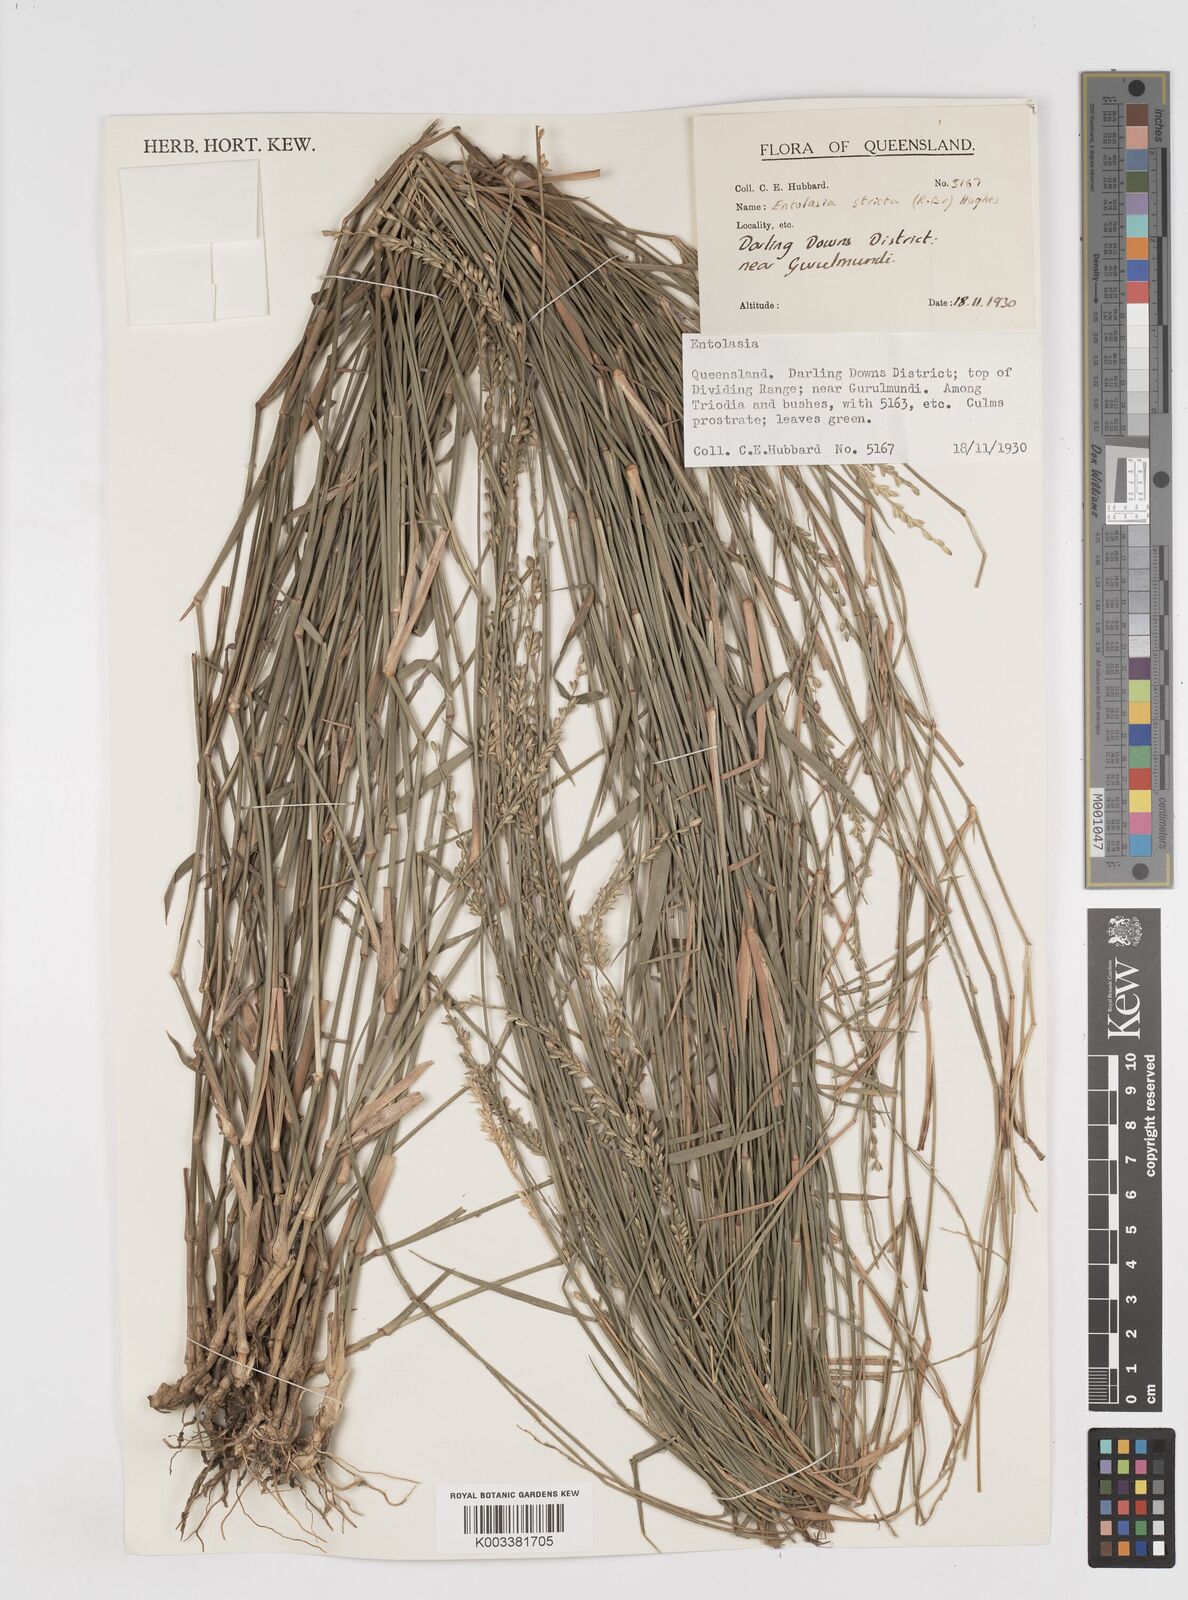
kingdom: Plantae
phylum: Tracheophyta
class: Liliopsida
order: Poales
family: Poaceae
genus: Entolasia
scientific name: Entolasia stricta
